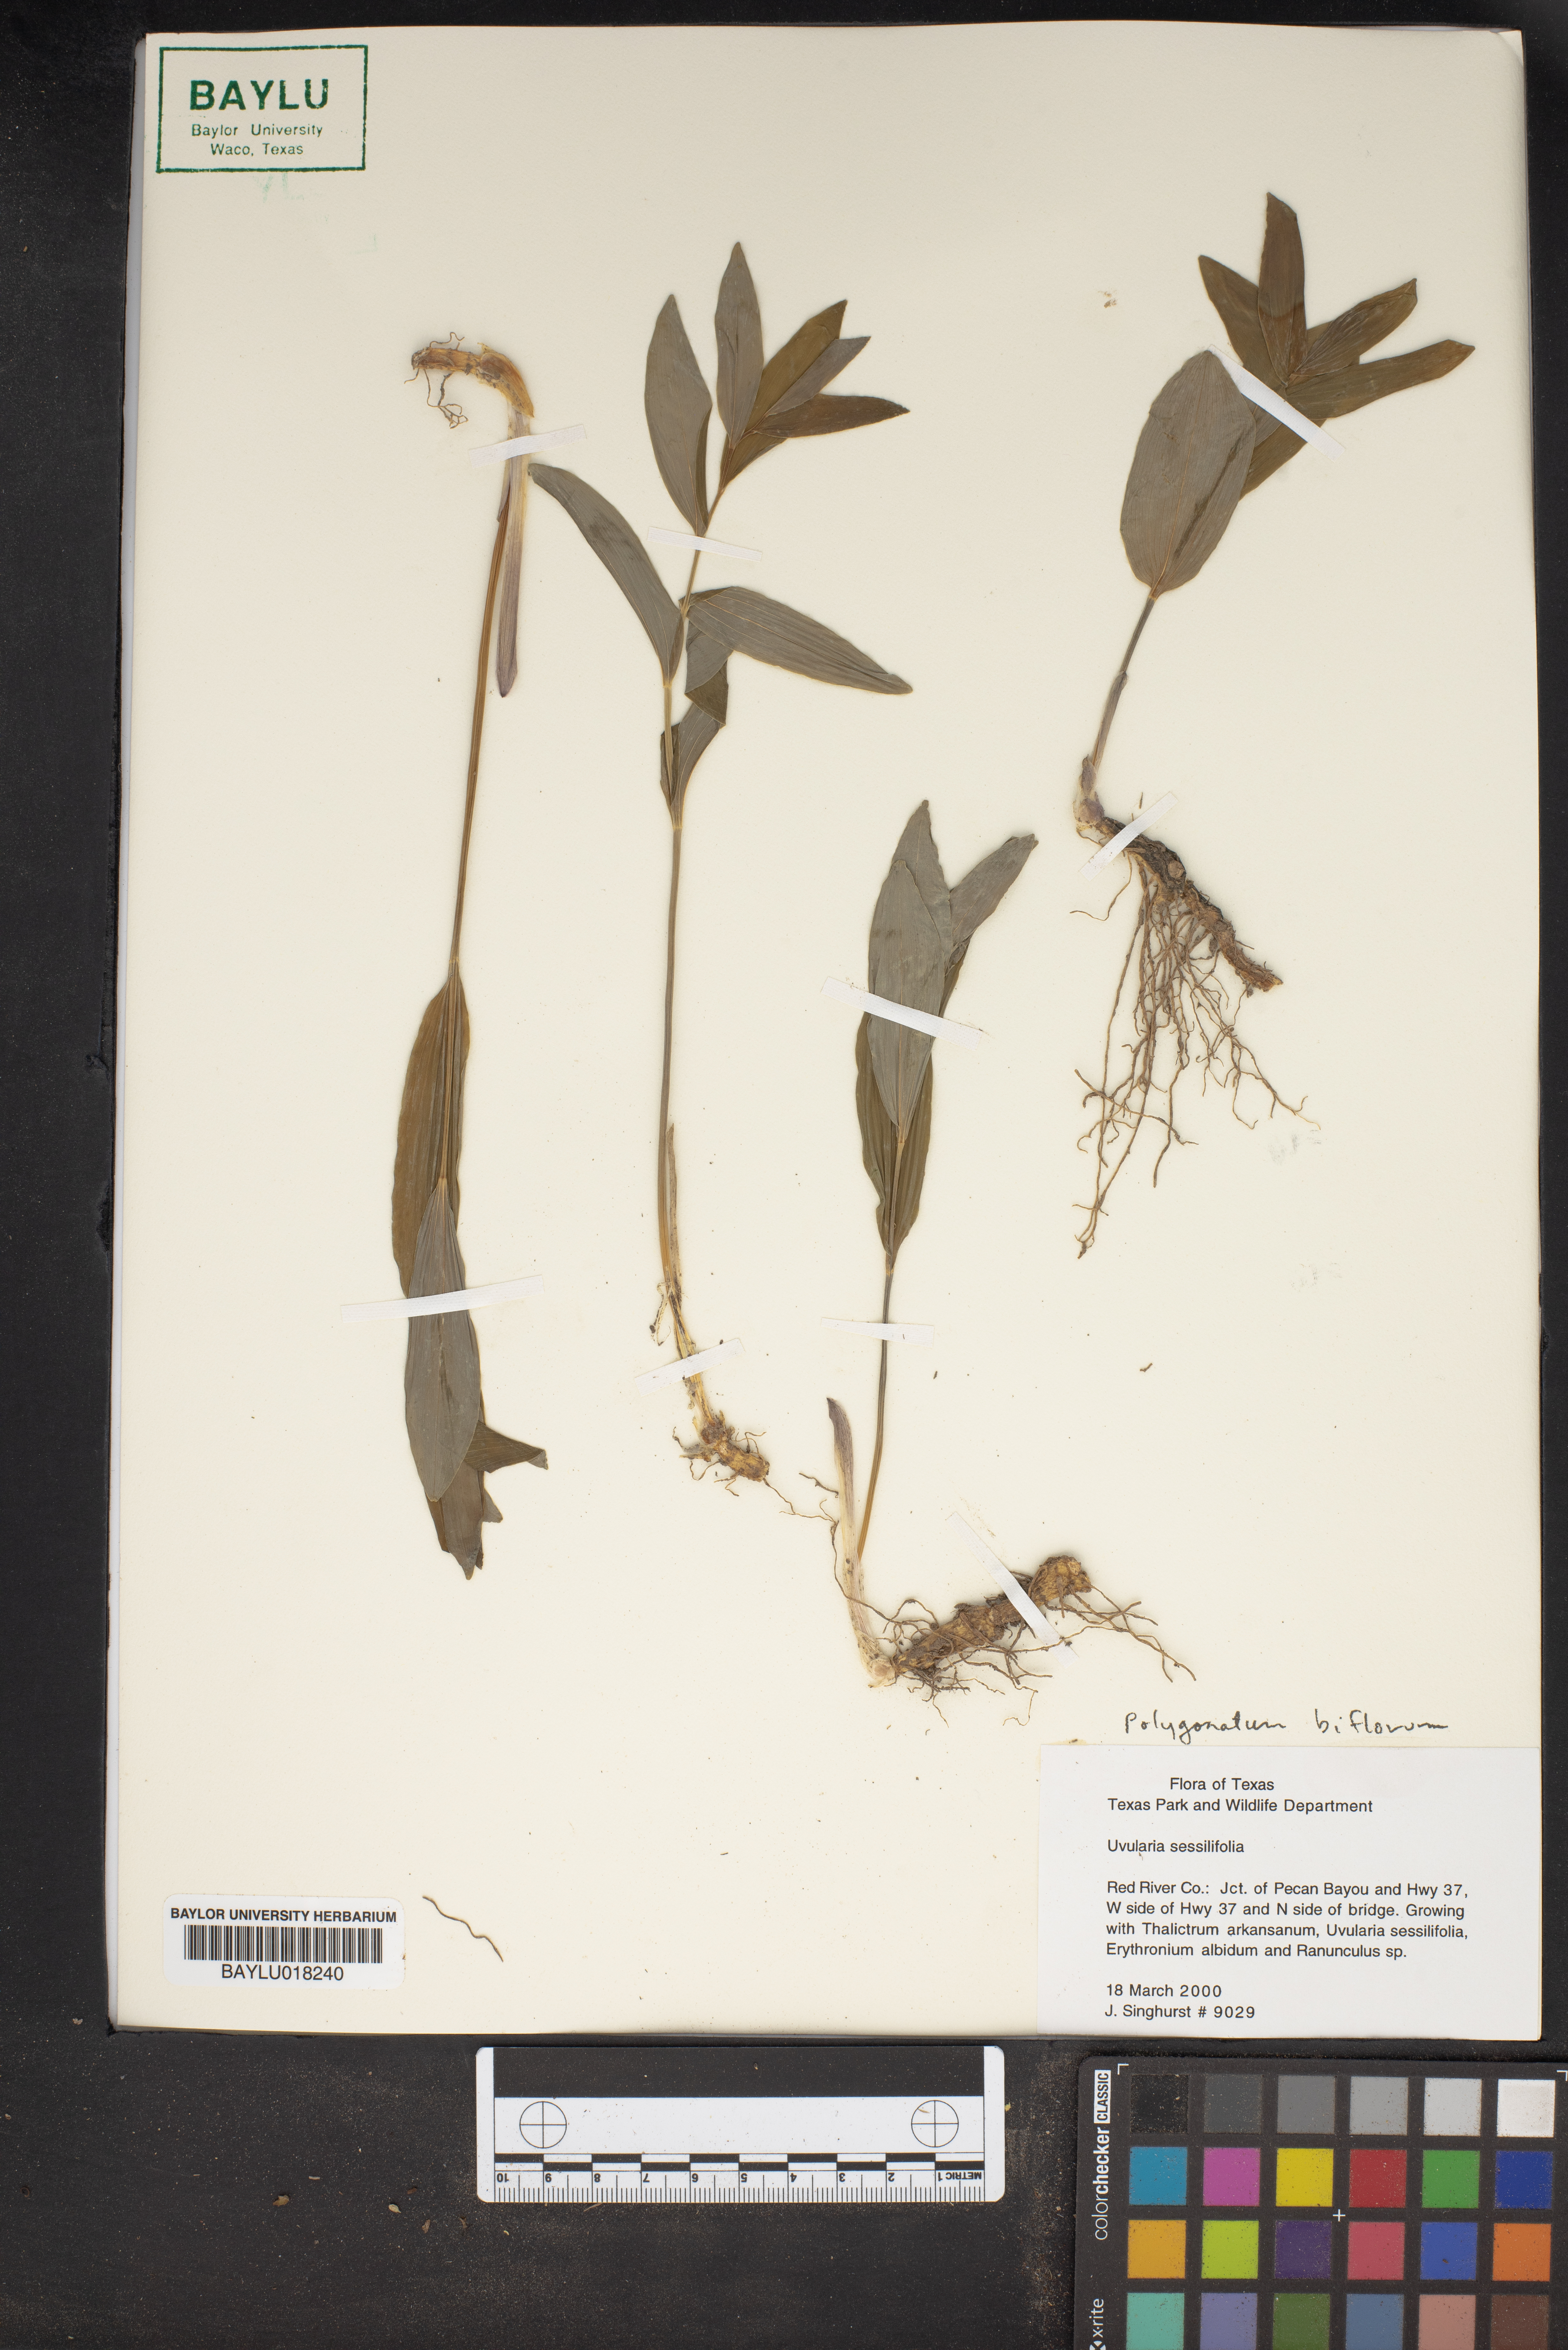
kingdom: Plantae
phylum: Tracheophyta
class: Liliopsida
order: Asparagales
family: Asparagaceae
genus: Polygonatum
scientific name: Polygonatum biflorum
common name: American solomon's-seal
